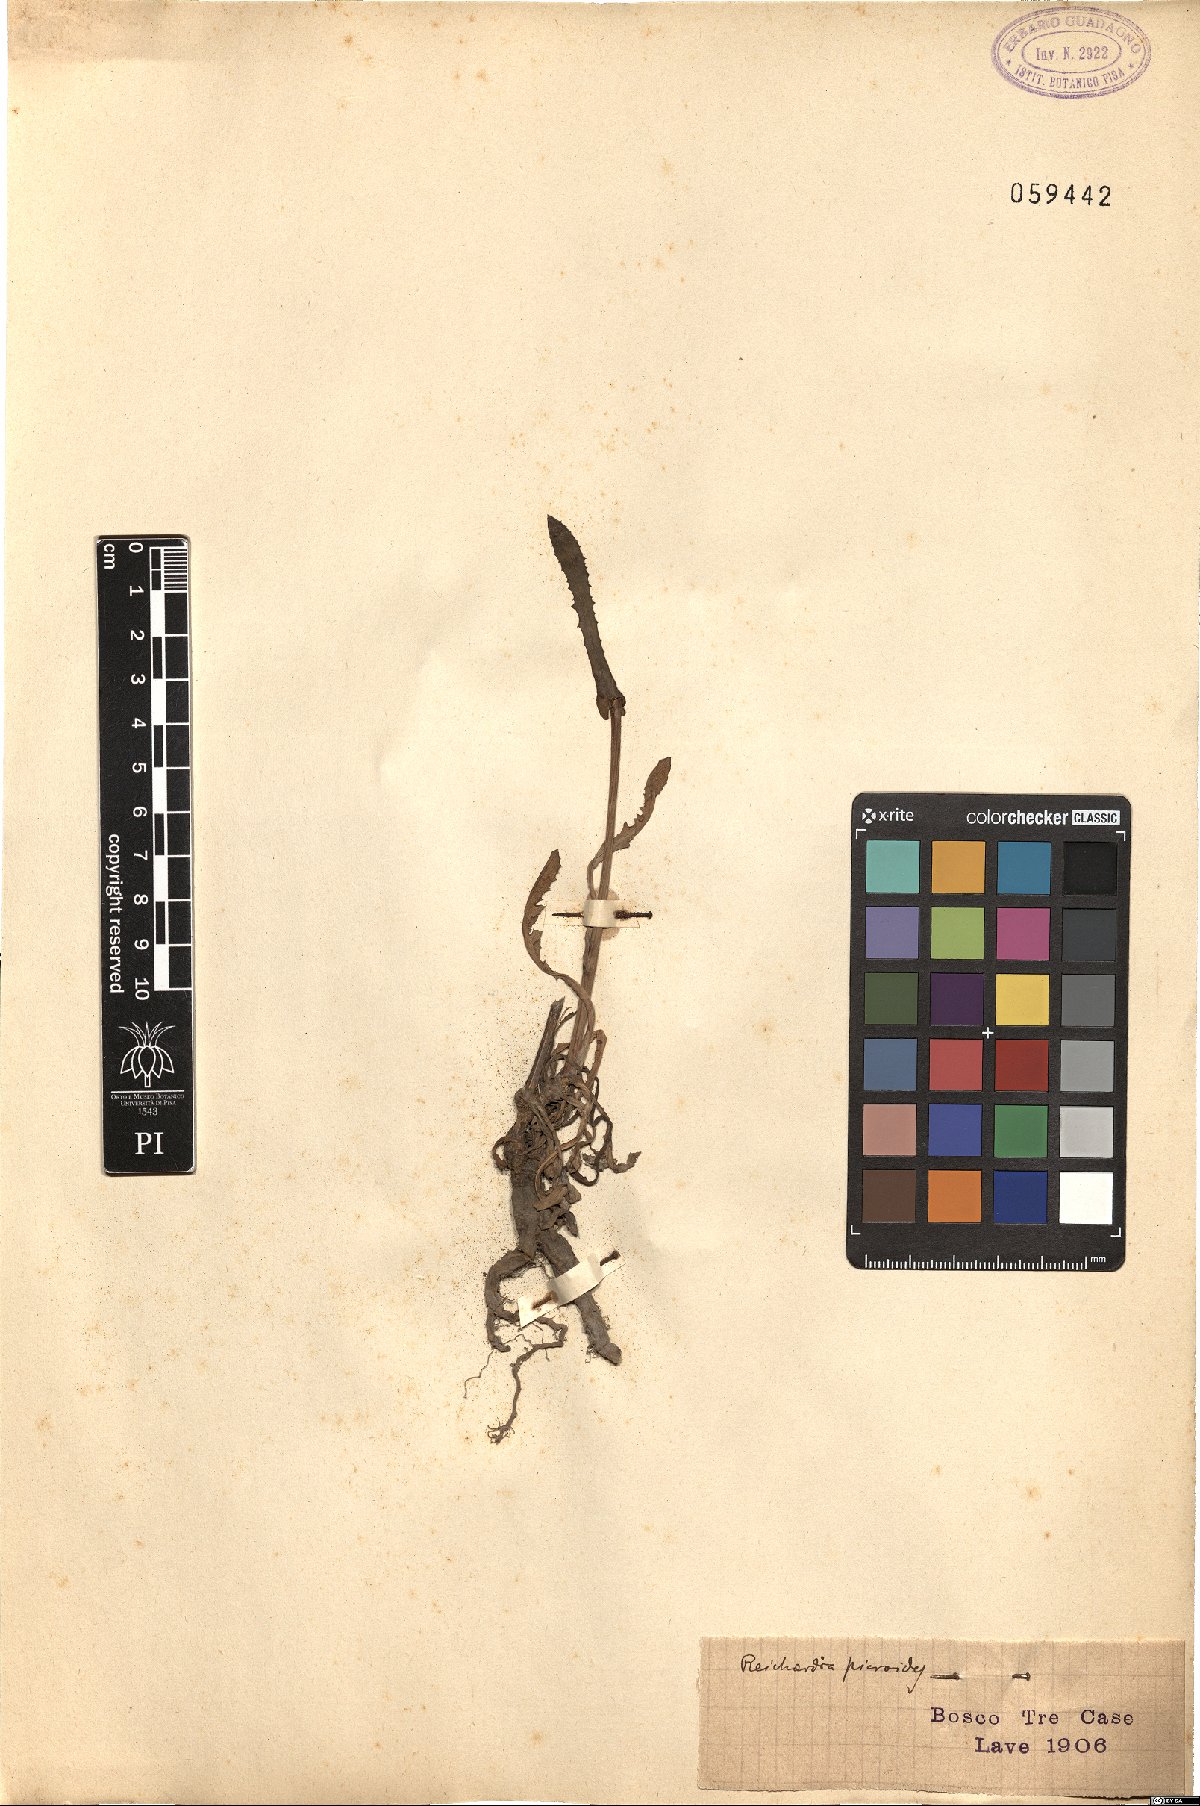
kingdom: Plantae
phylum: Tracheophyta
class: Magnoliopsida
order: Asterales
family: Asteraceae
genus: Reichardia
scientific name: Reichardia picroides
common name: Common brighteyes
